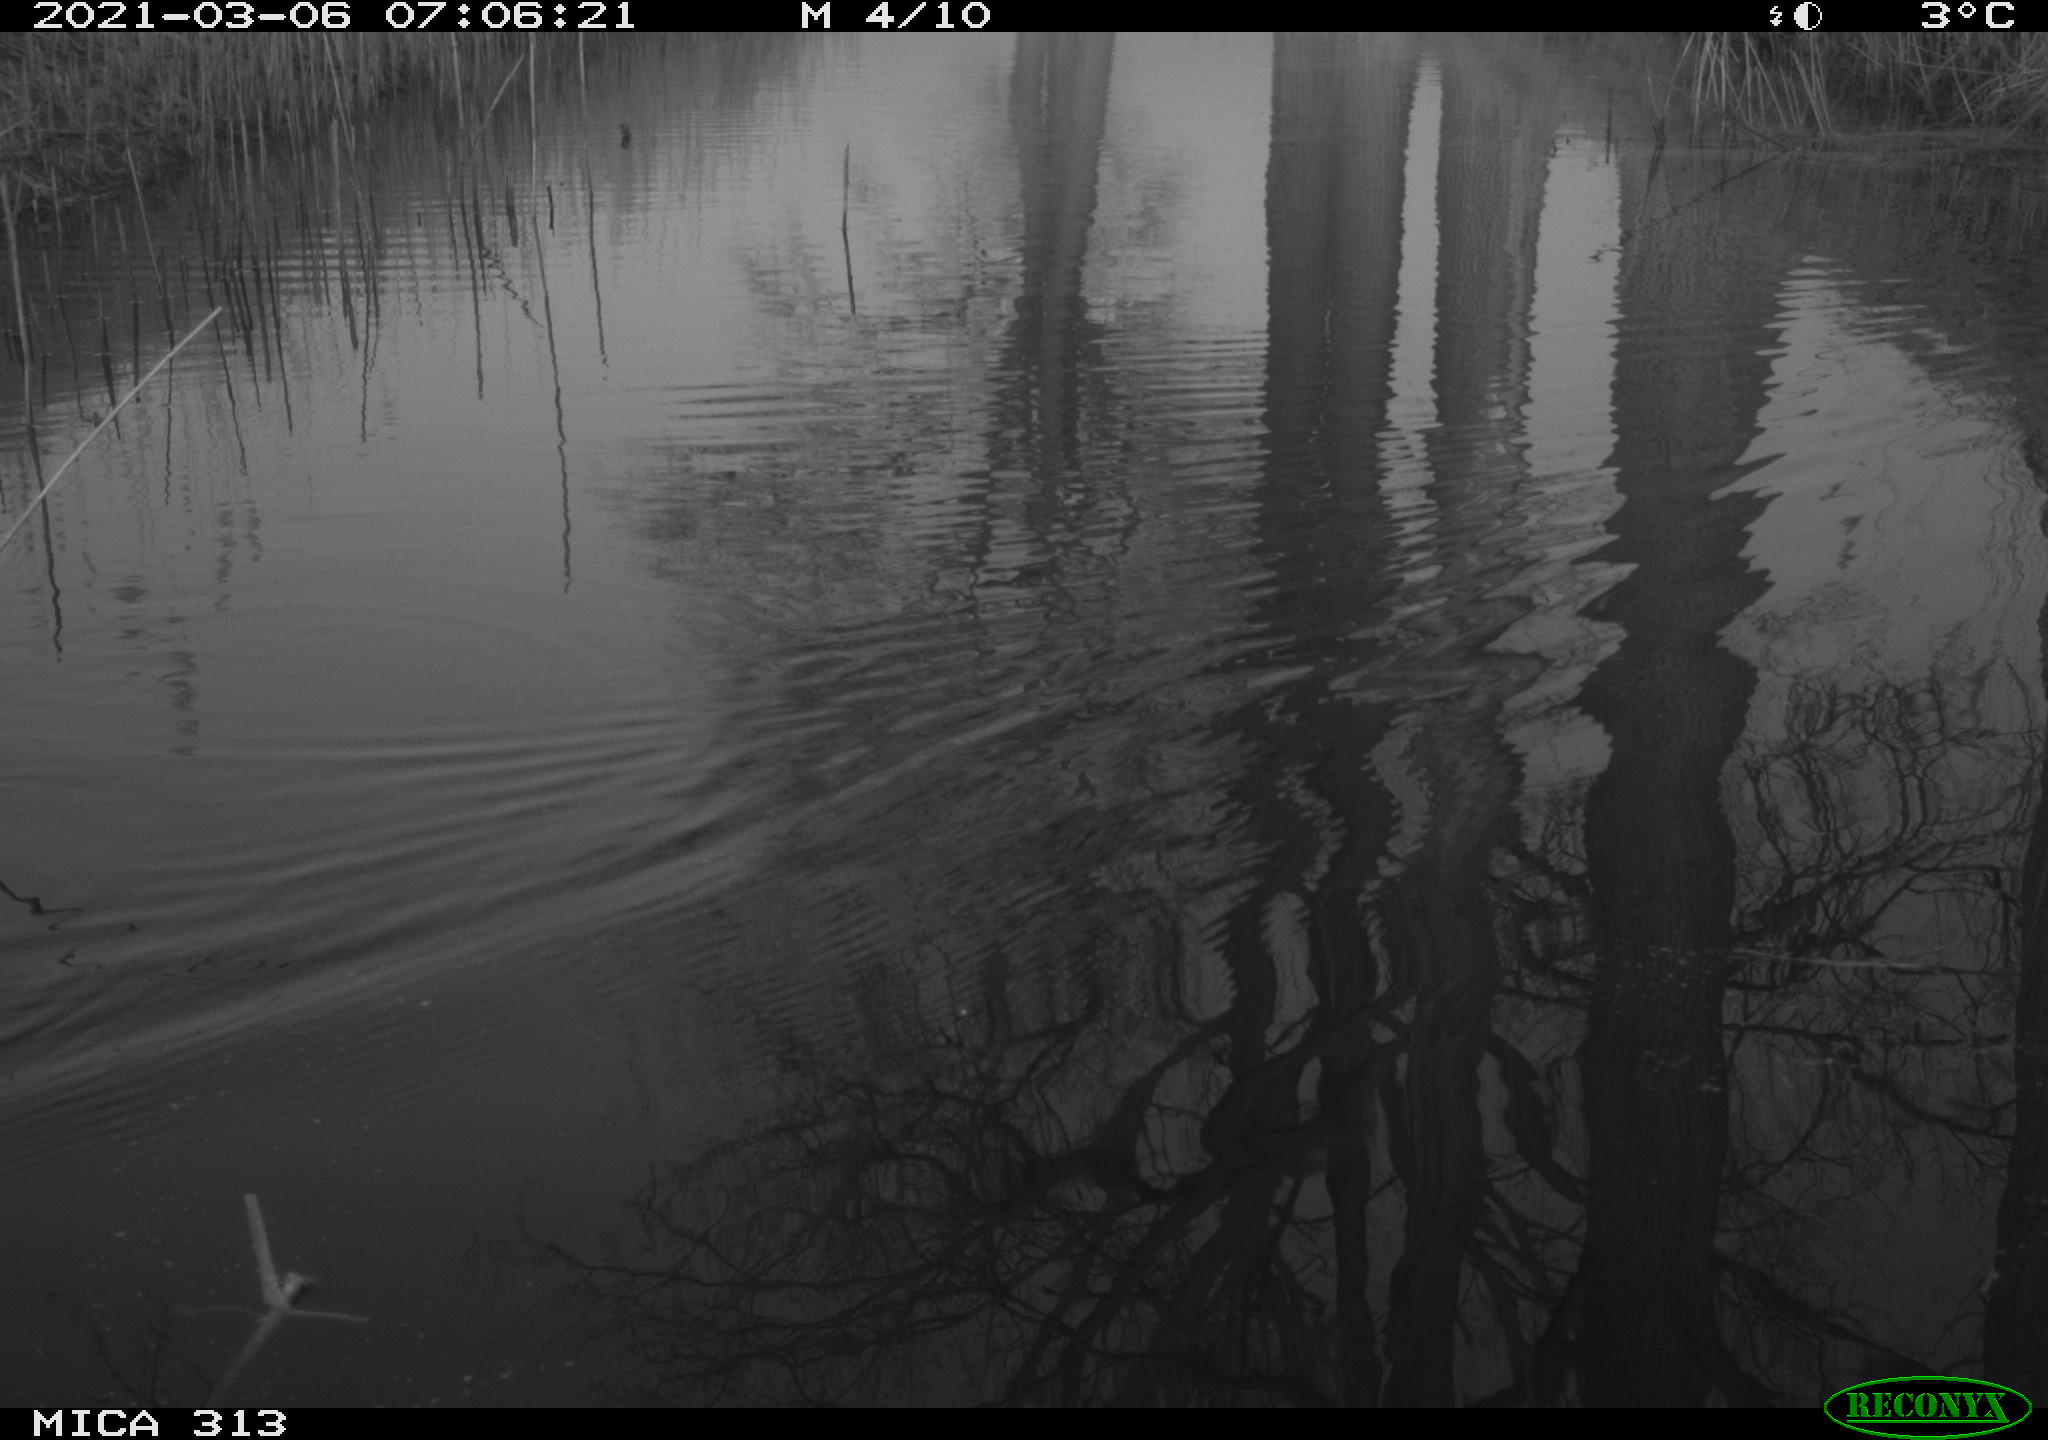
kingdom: Animalia
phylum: Chordata
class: Aves
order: Gruiformes
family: Rallidae
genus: Gallinula
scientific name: Gallinula chloropus
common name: Common moorhen
